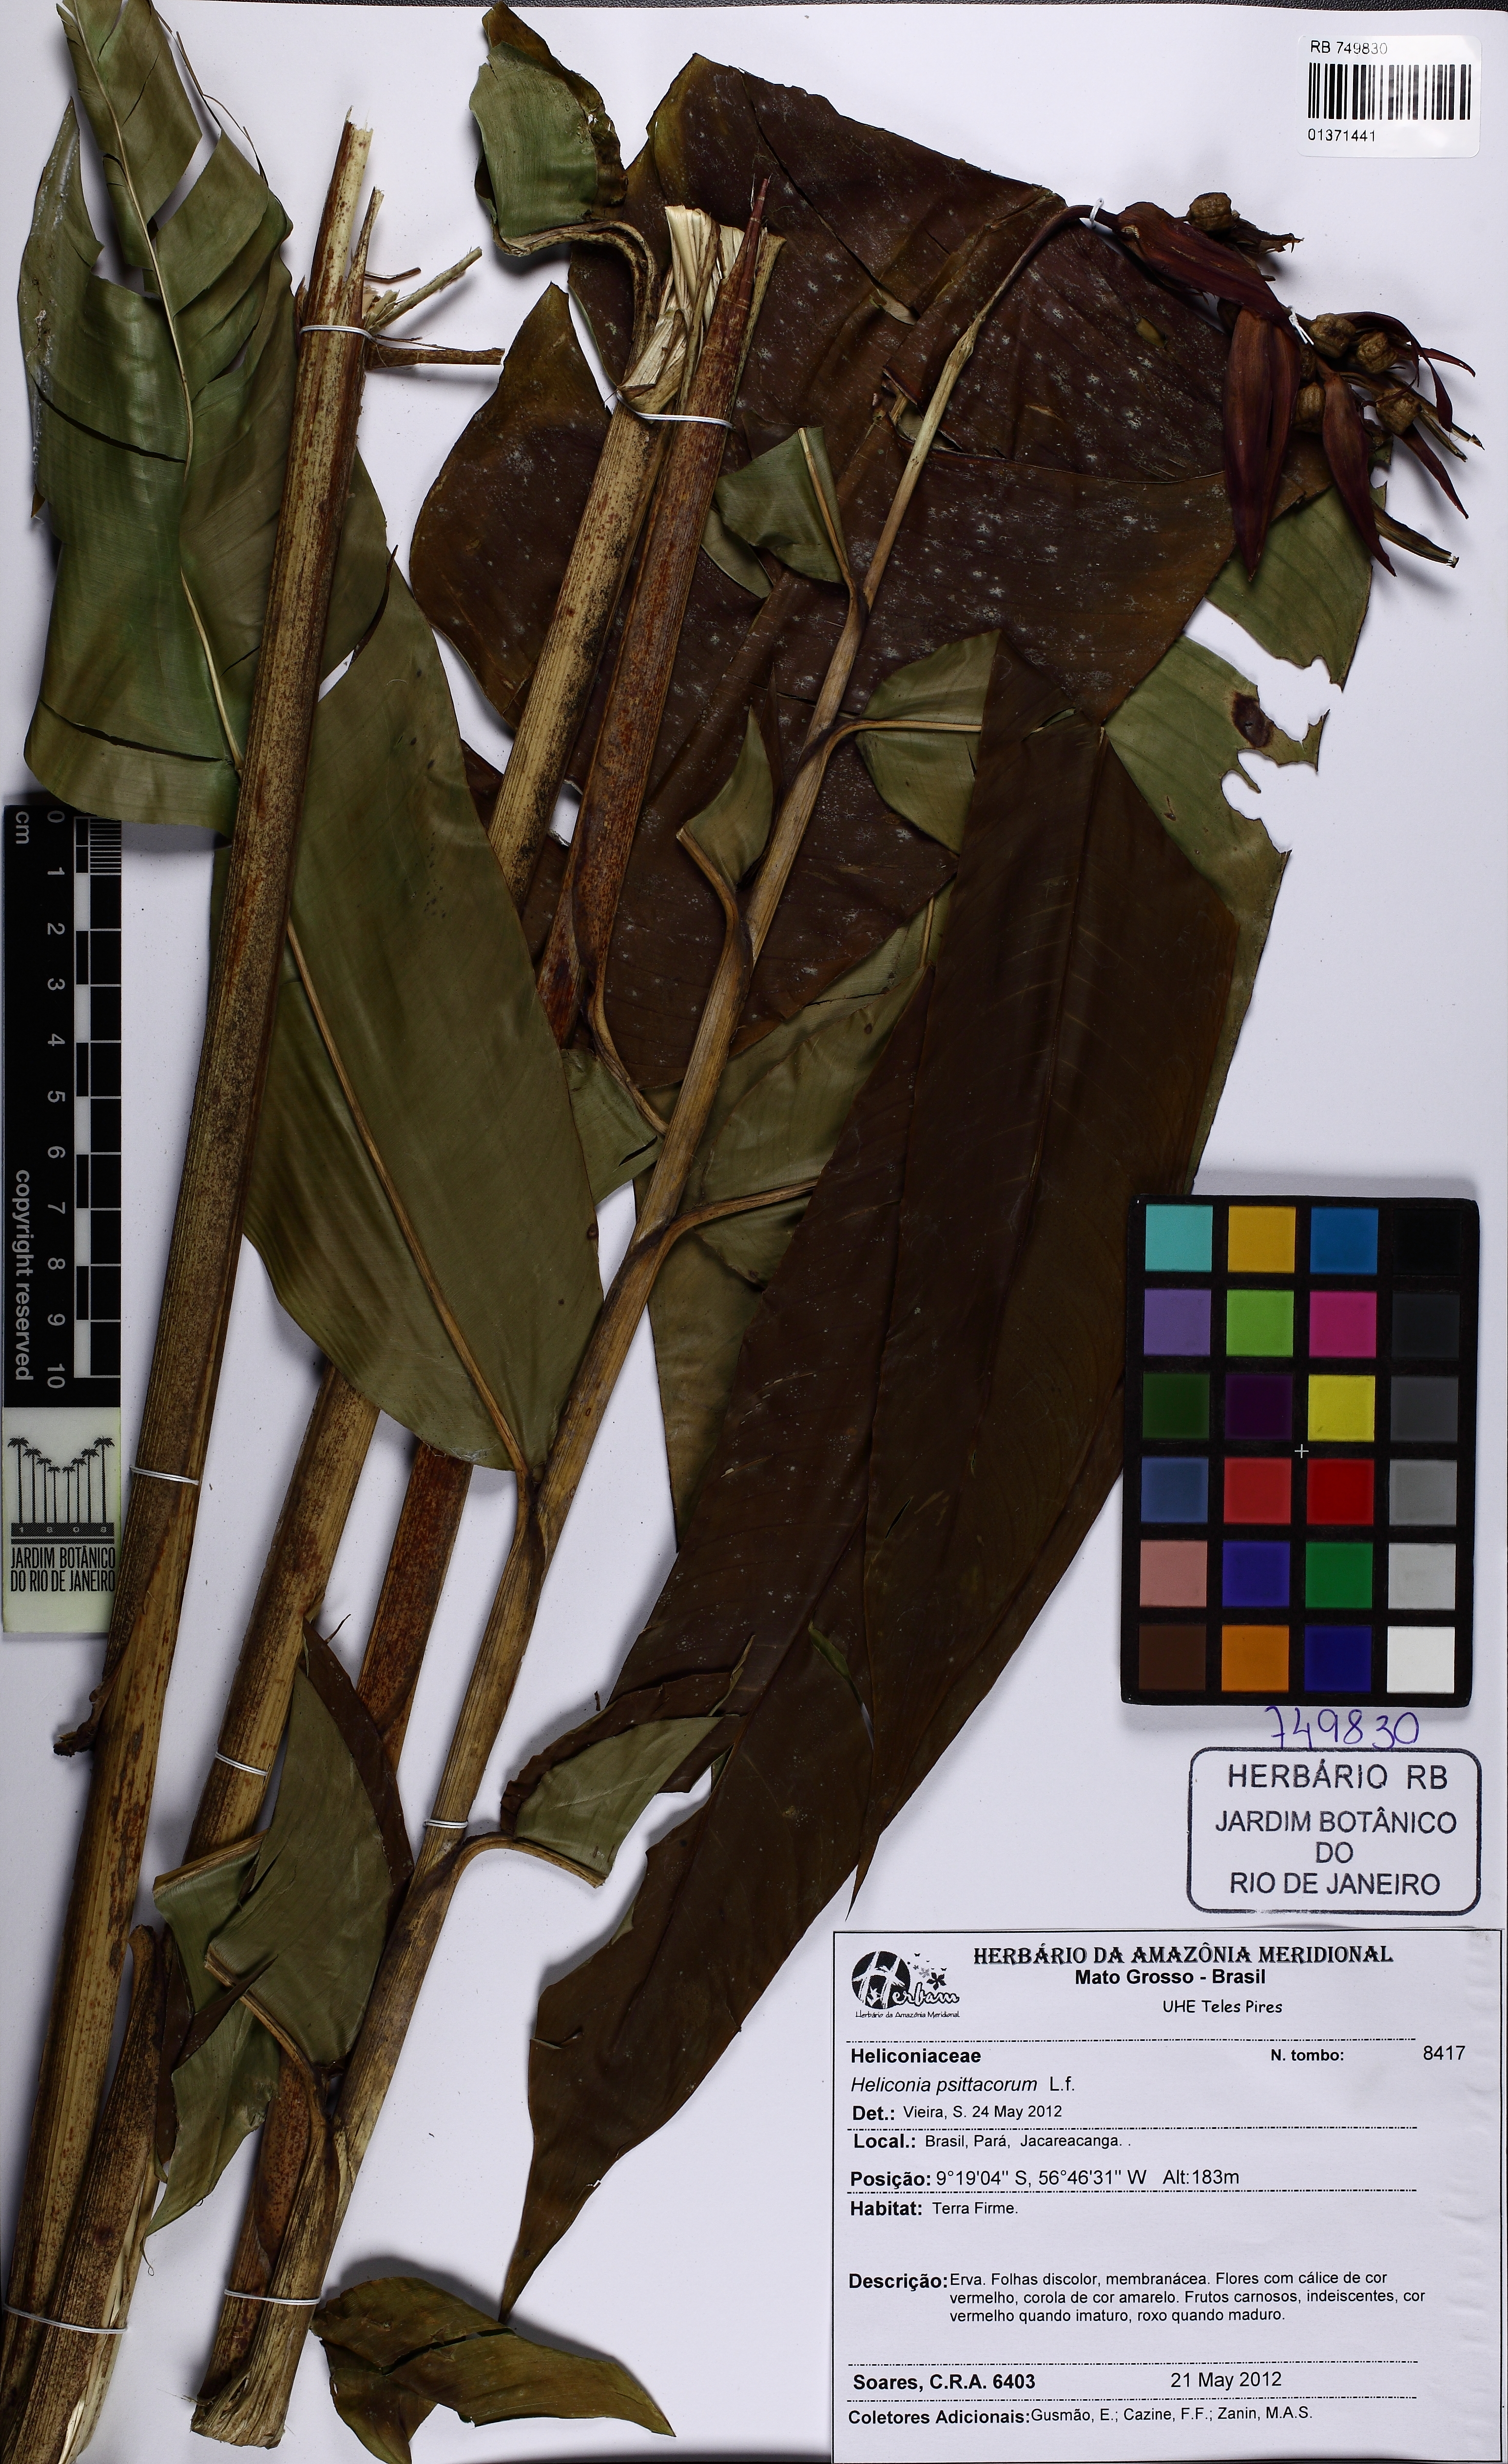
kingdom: Plantae
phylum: Tracheophyta
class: Liliopsida
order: Zingiberales
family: Heliconiaceae
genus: Heliconia
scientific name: Heliconia psittacorum
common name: Parrot's-flower
